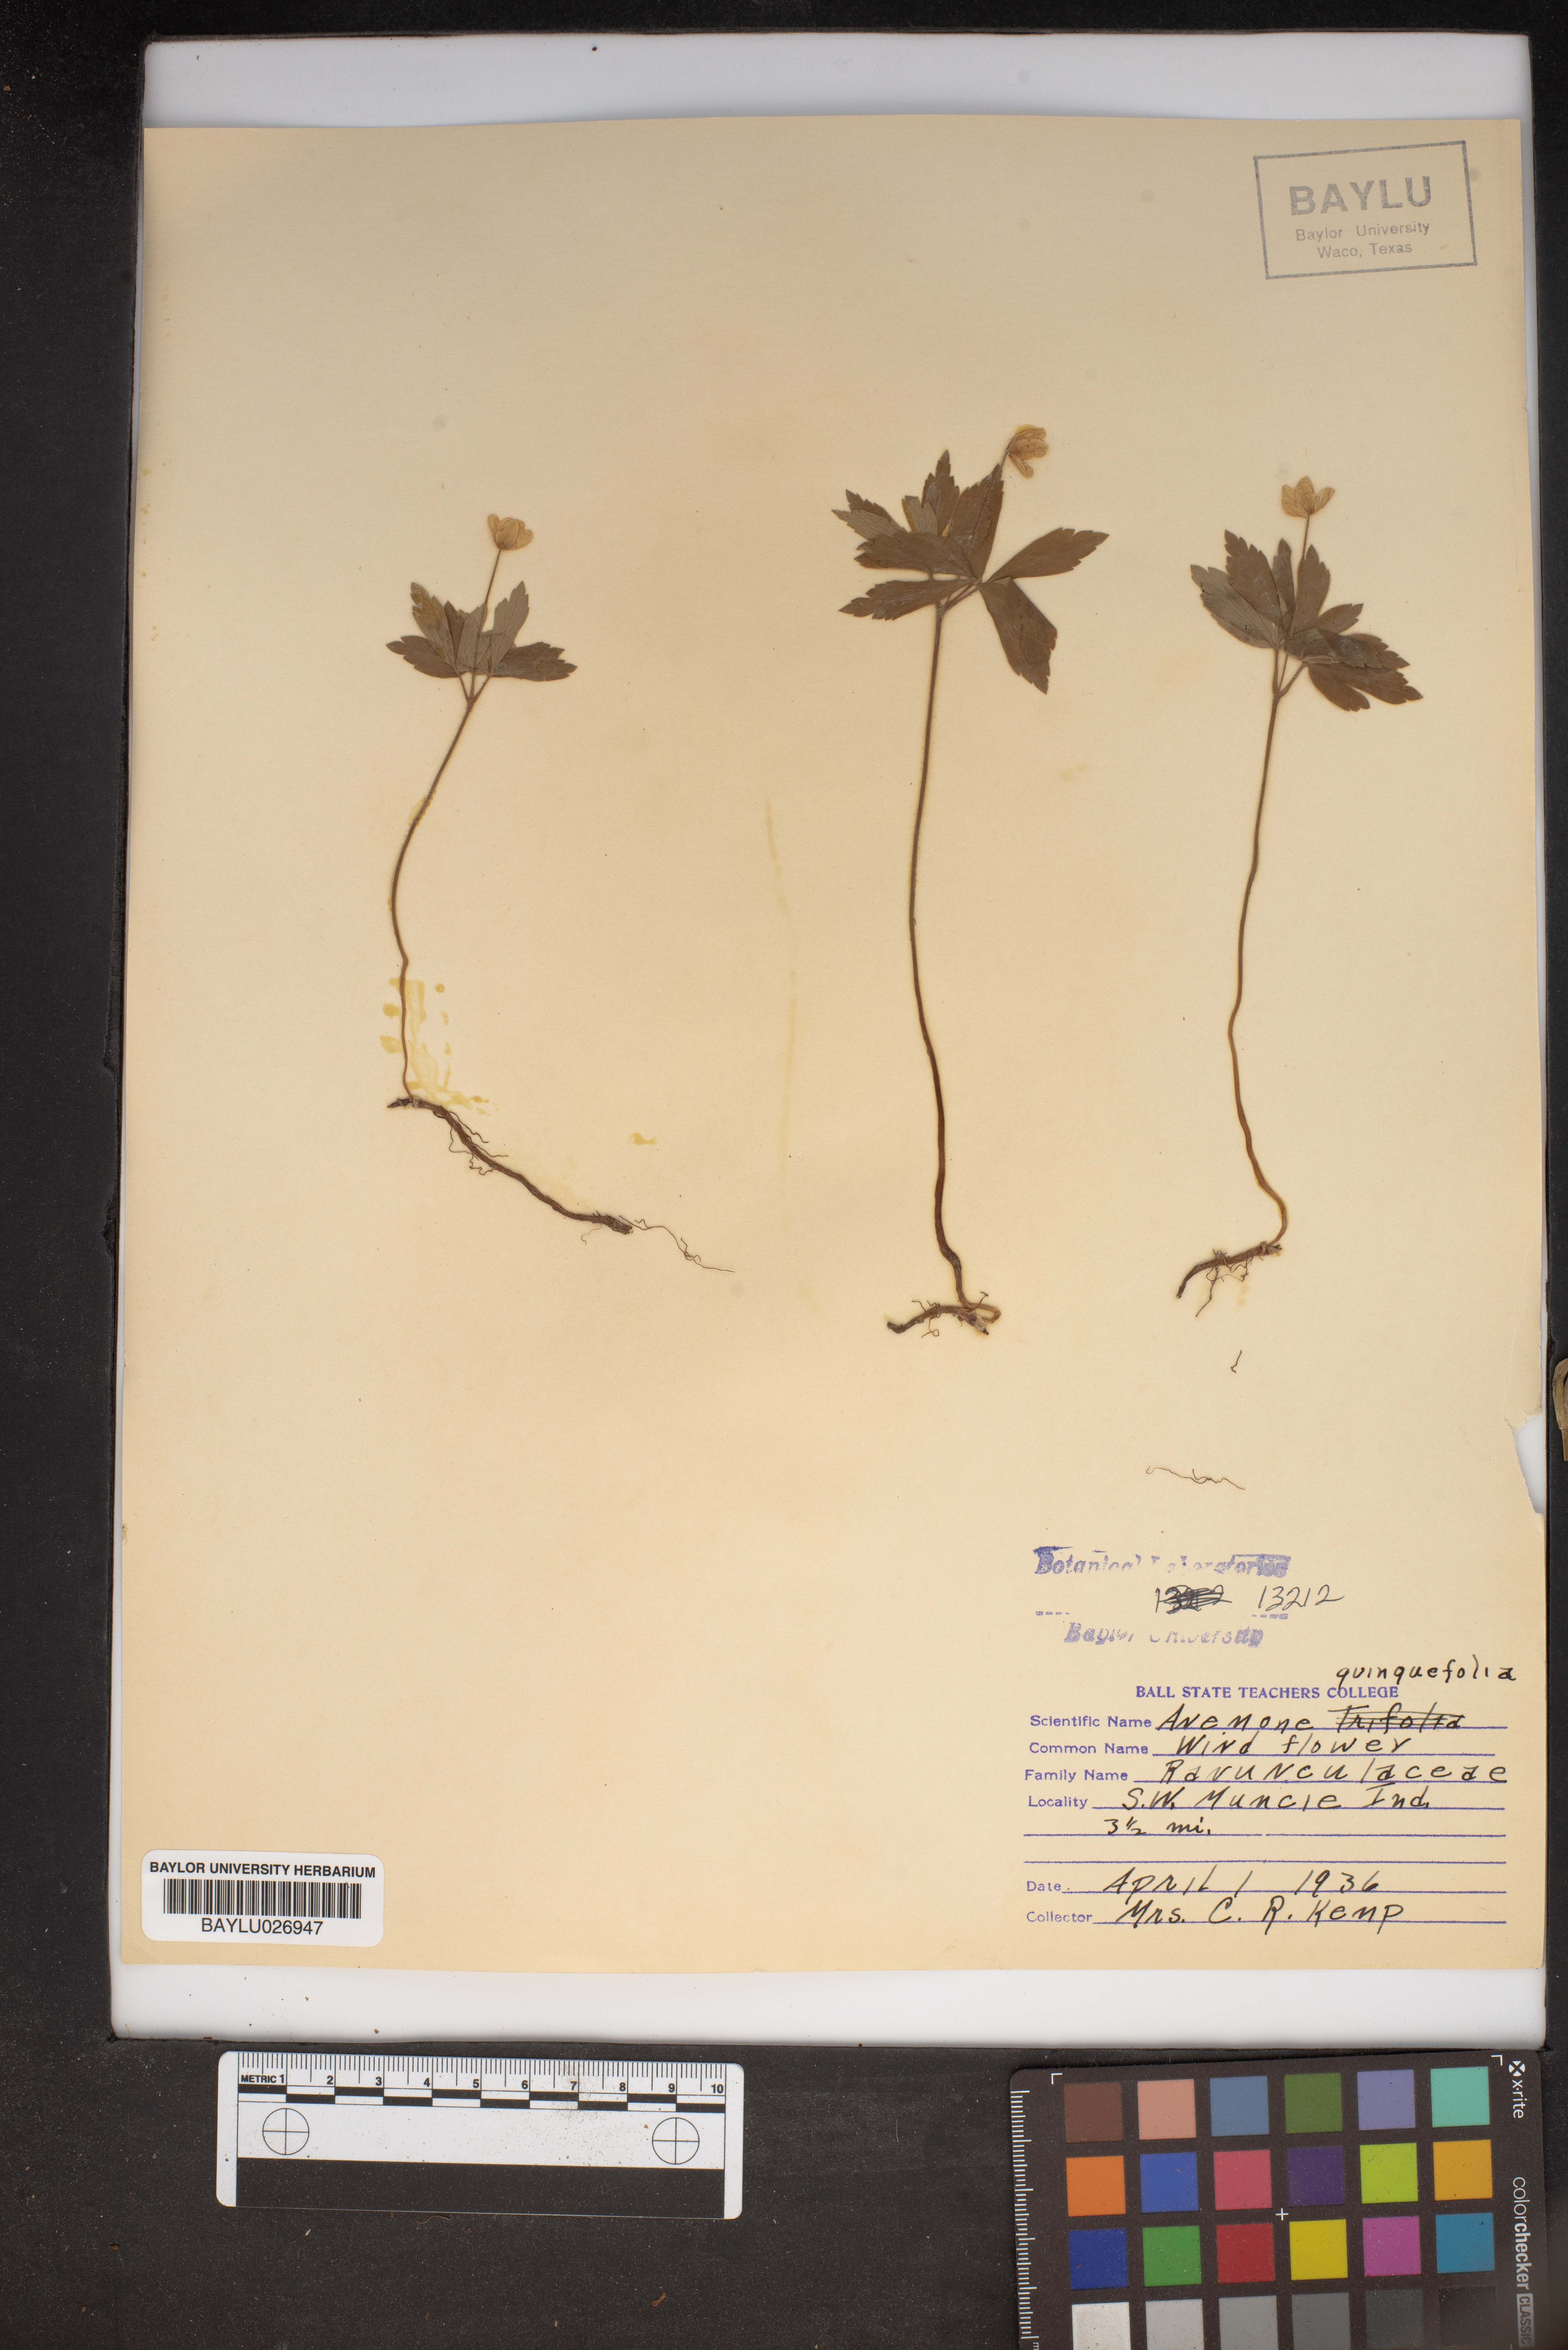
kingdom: Plantae
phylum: Tracheophyta
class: Magnoliopsida
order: Ranunculales
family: Ranunculaceae
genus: Anemone
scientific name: Anemone quinquefolia
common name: Wood anemone
